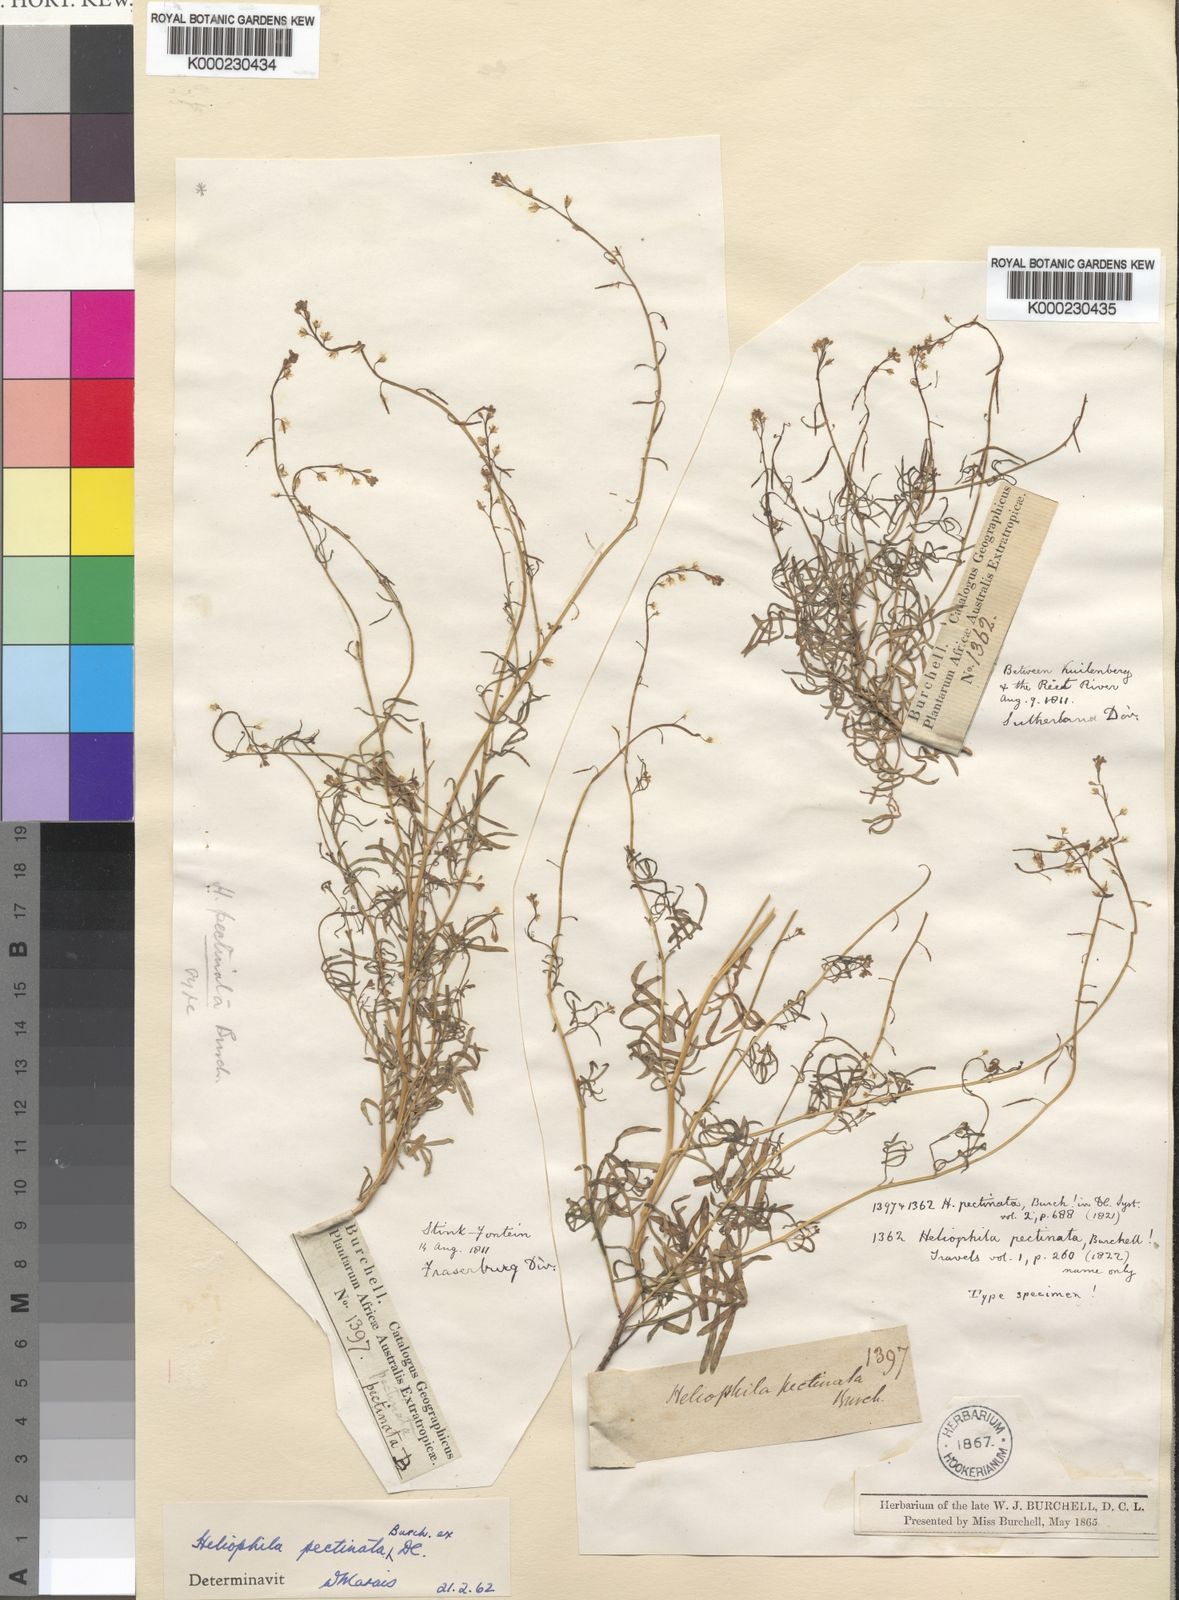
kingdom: Plantae
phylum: Tracheophyta
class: Magnoliopsida
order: Brassicales
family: Brassicaceae
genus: Heliophila
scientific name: Heliophila pectinata
